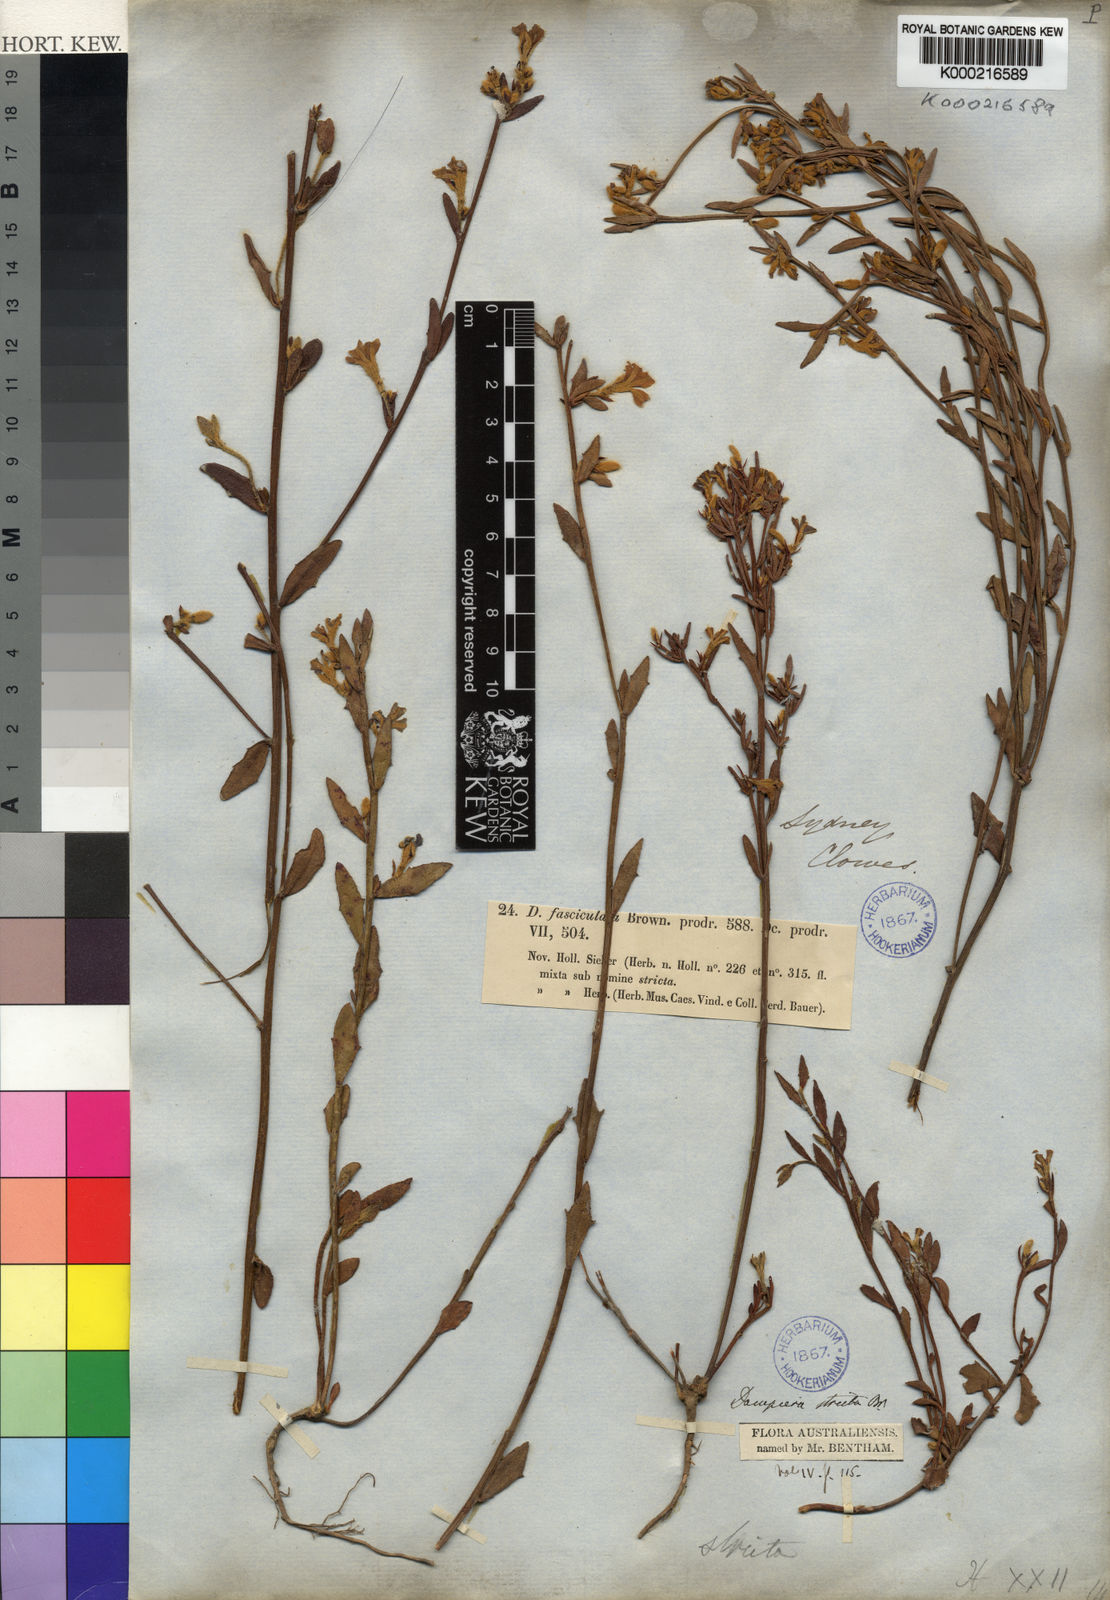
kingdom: Plantae
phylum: Tracheophyta
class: Magnoliopsida
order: Asterales
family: Goodeniaceae
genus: Dampiera
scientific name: Dampiera stricta
